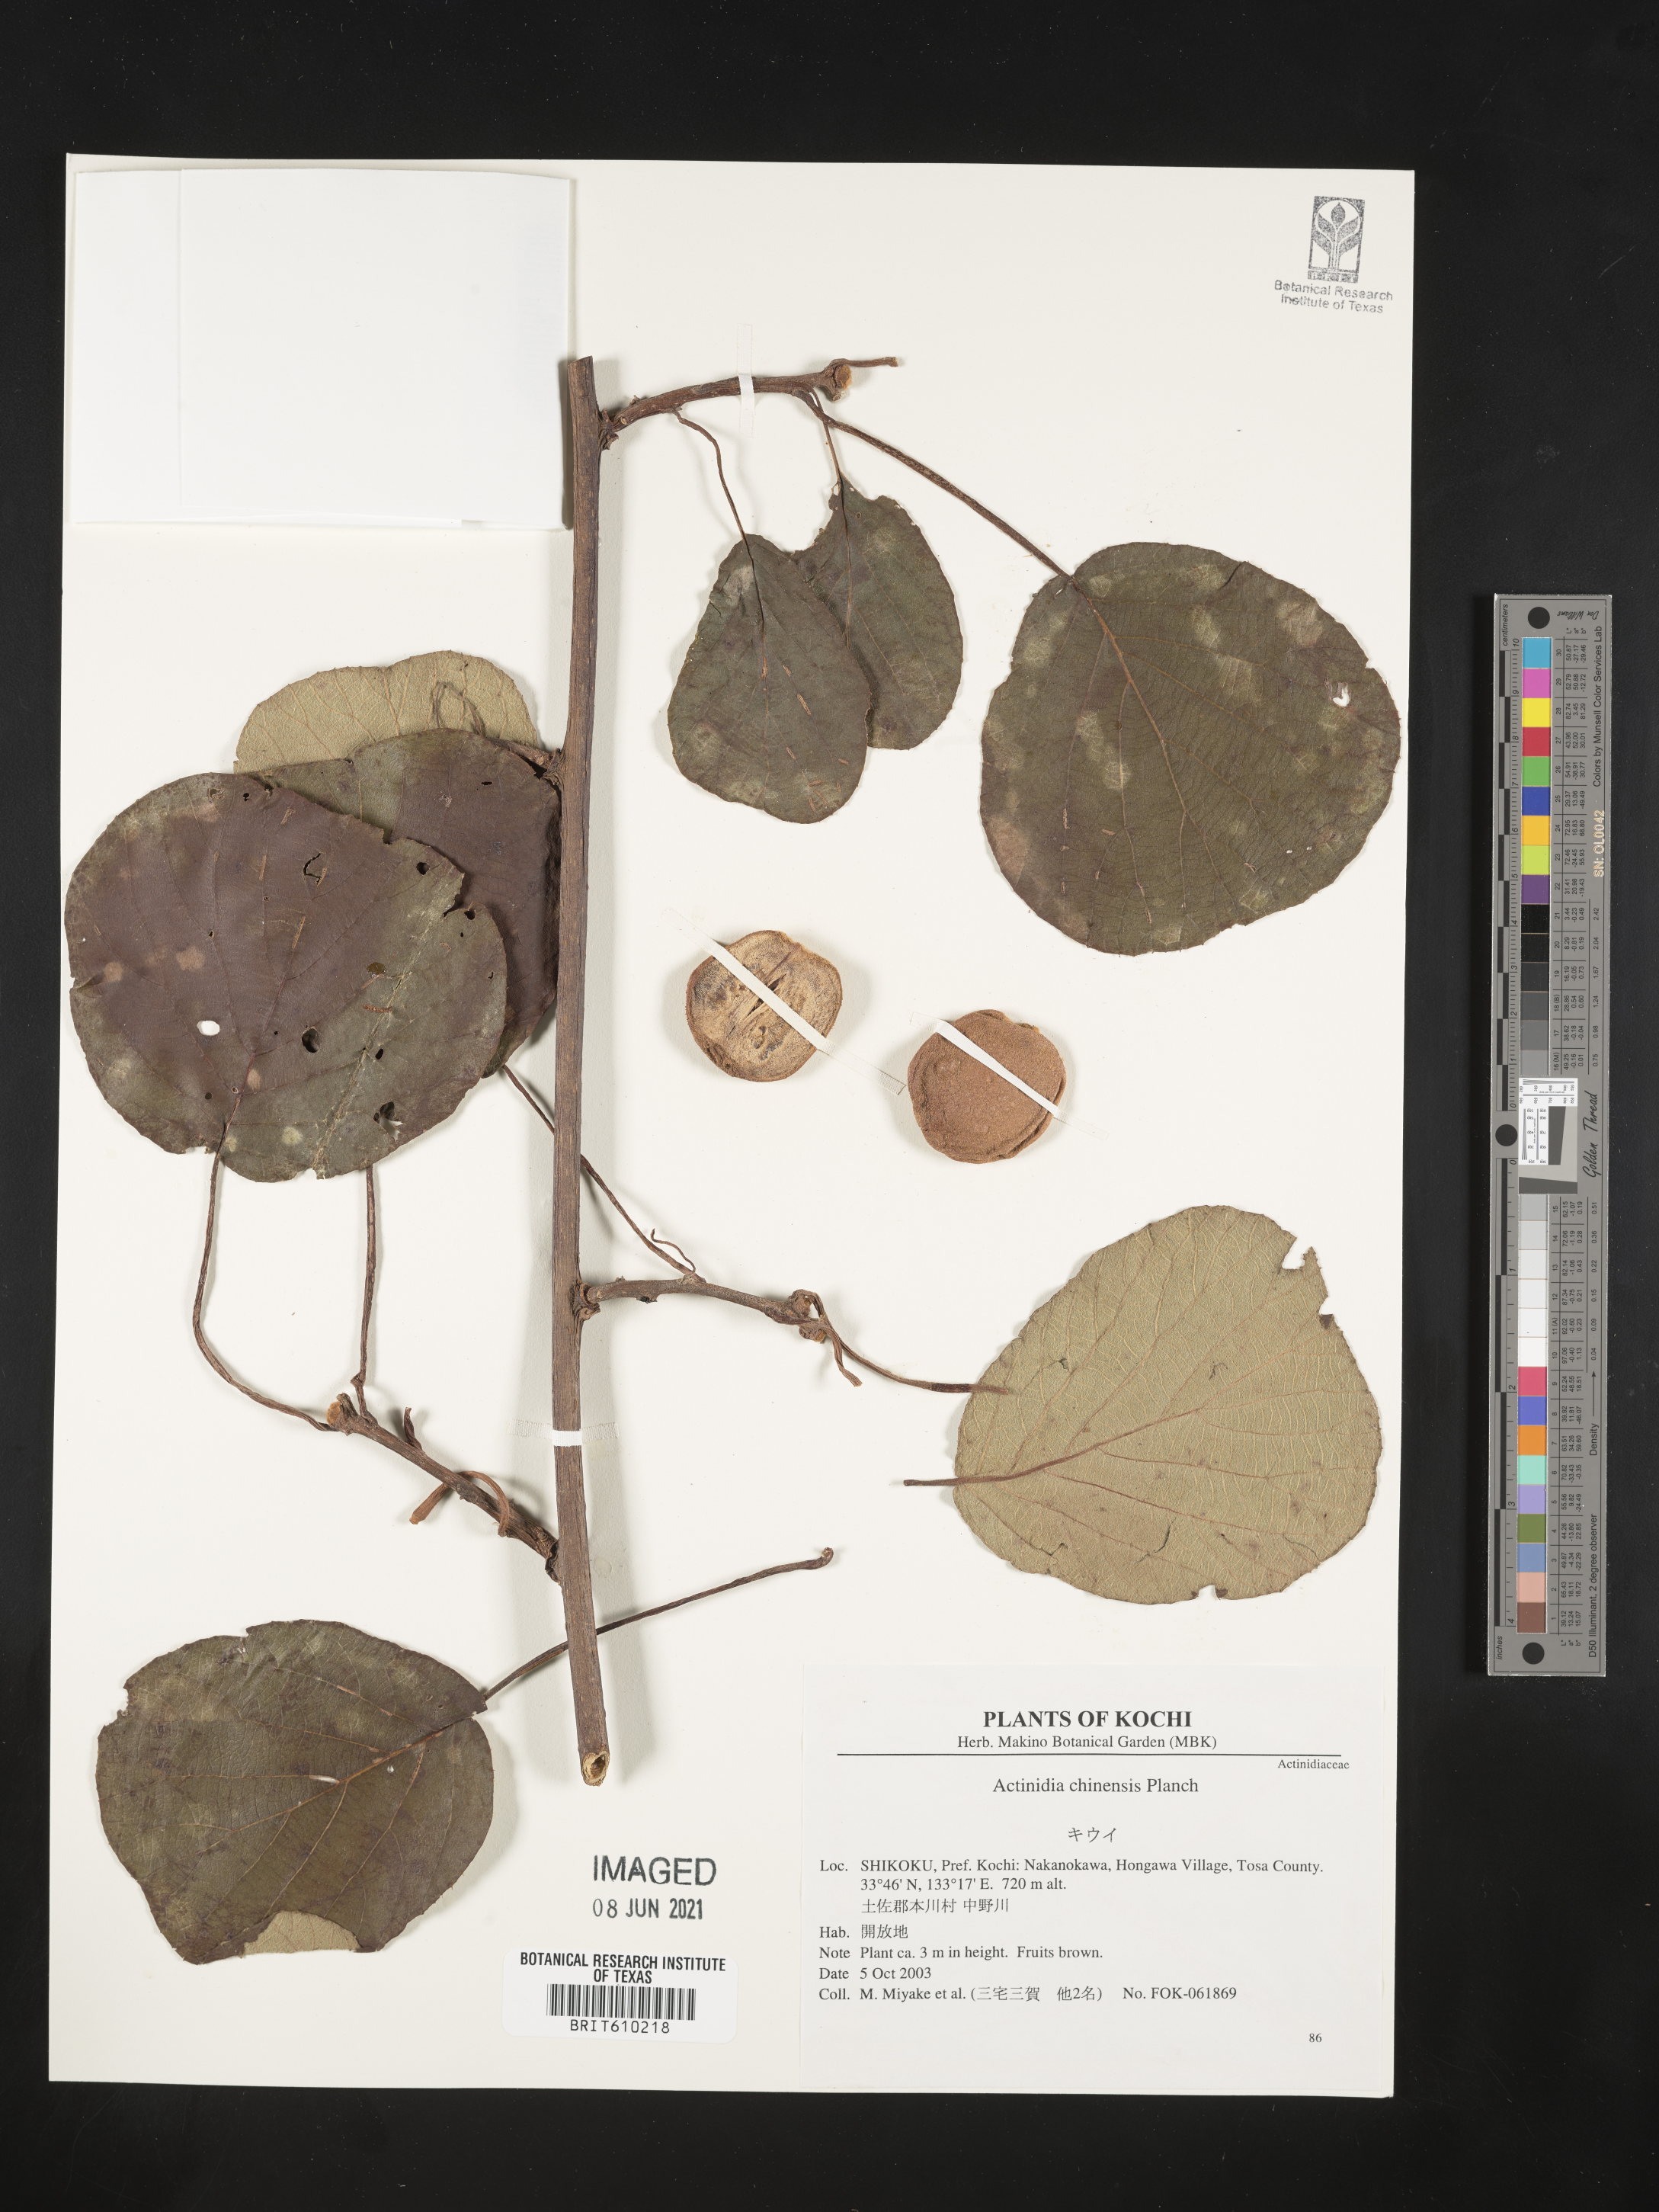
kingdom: Plantae
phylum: Tracheophyta
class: Magnoliopsida
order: Ericales
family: Actinidiaceae
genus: Actinidia
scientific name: Actinidia chinensis
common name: Kiwi
